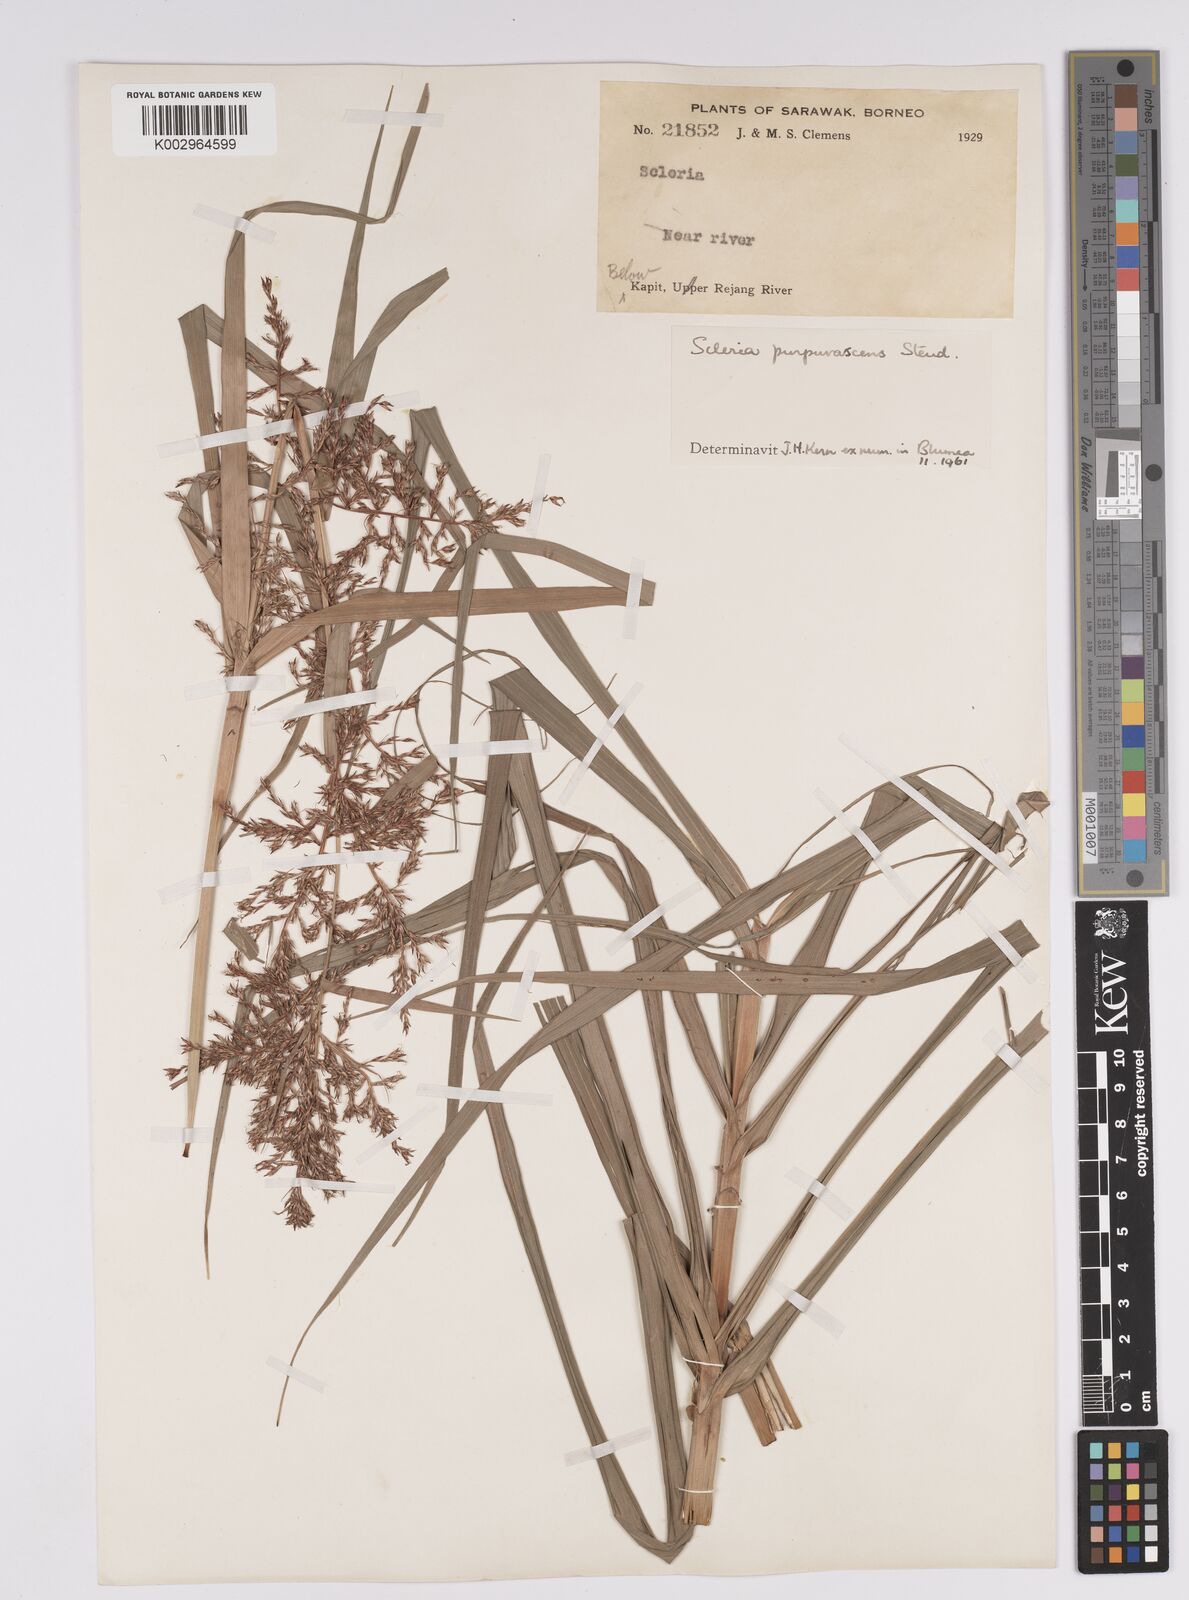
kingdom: Plantae
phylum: Tracheophyta
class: Liliopsida
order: Poales
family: Cyperaceae
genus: Scleria
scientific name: Scleria purpurascens
